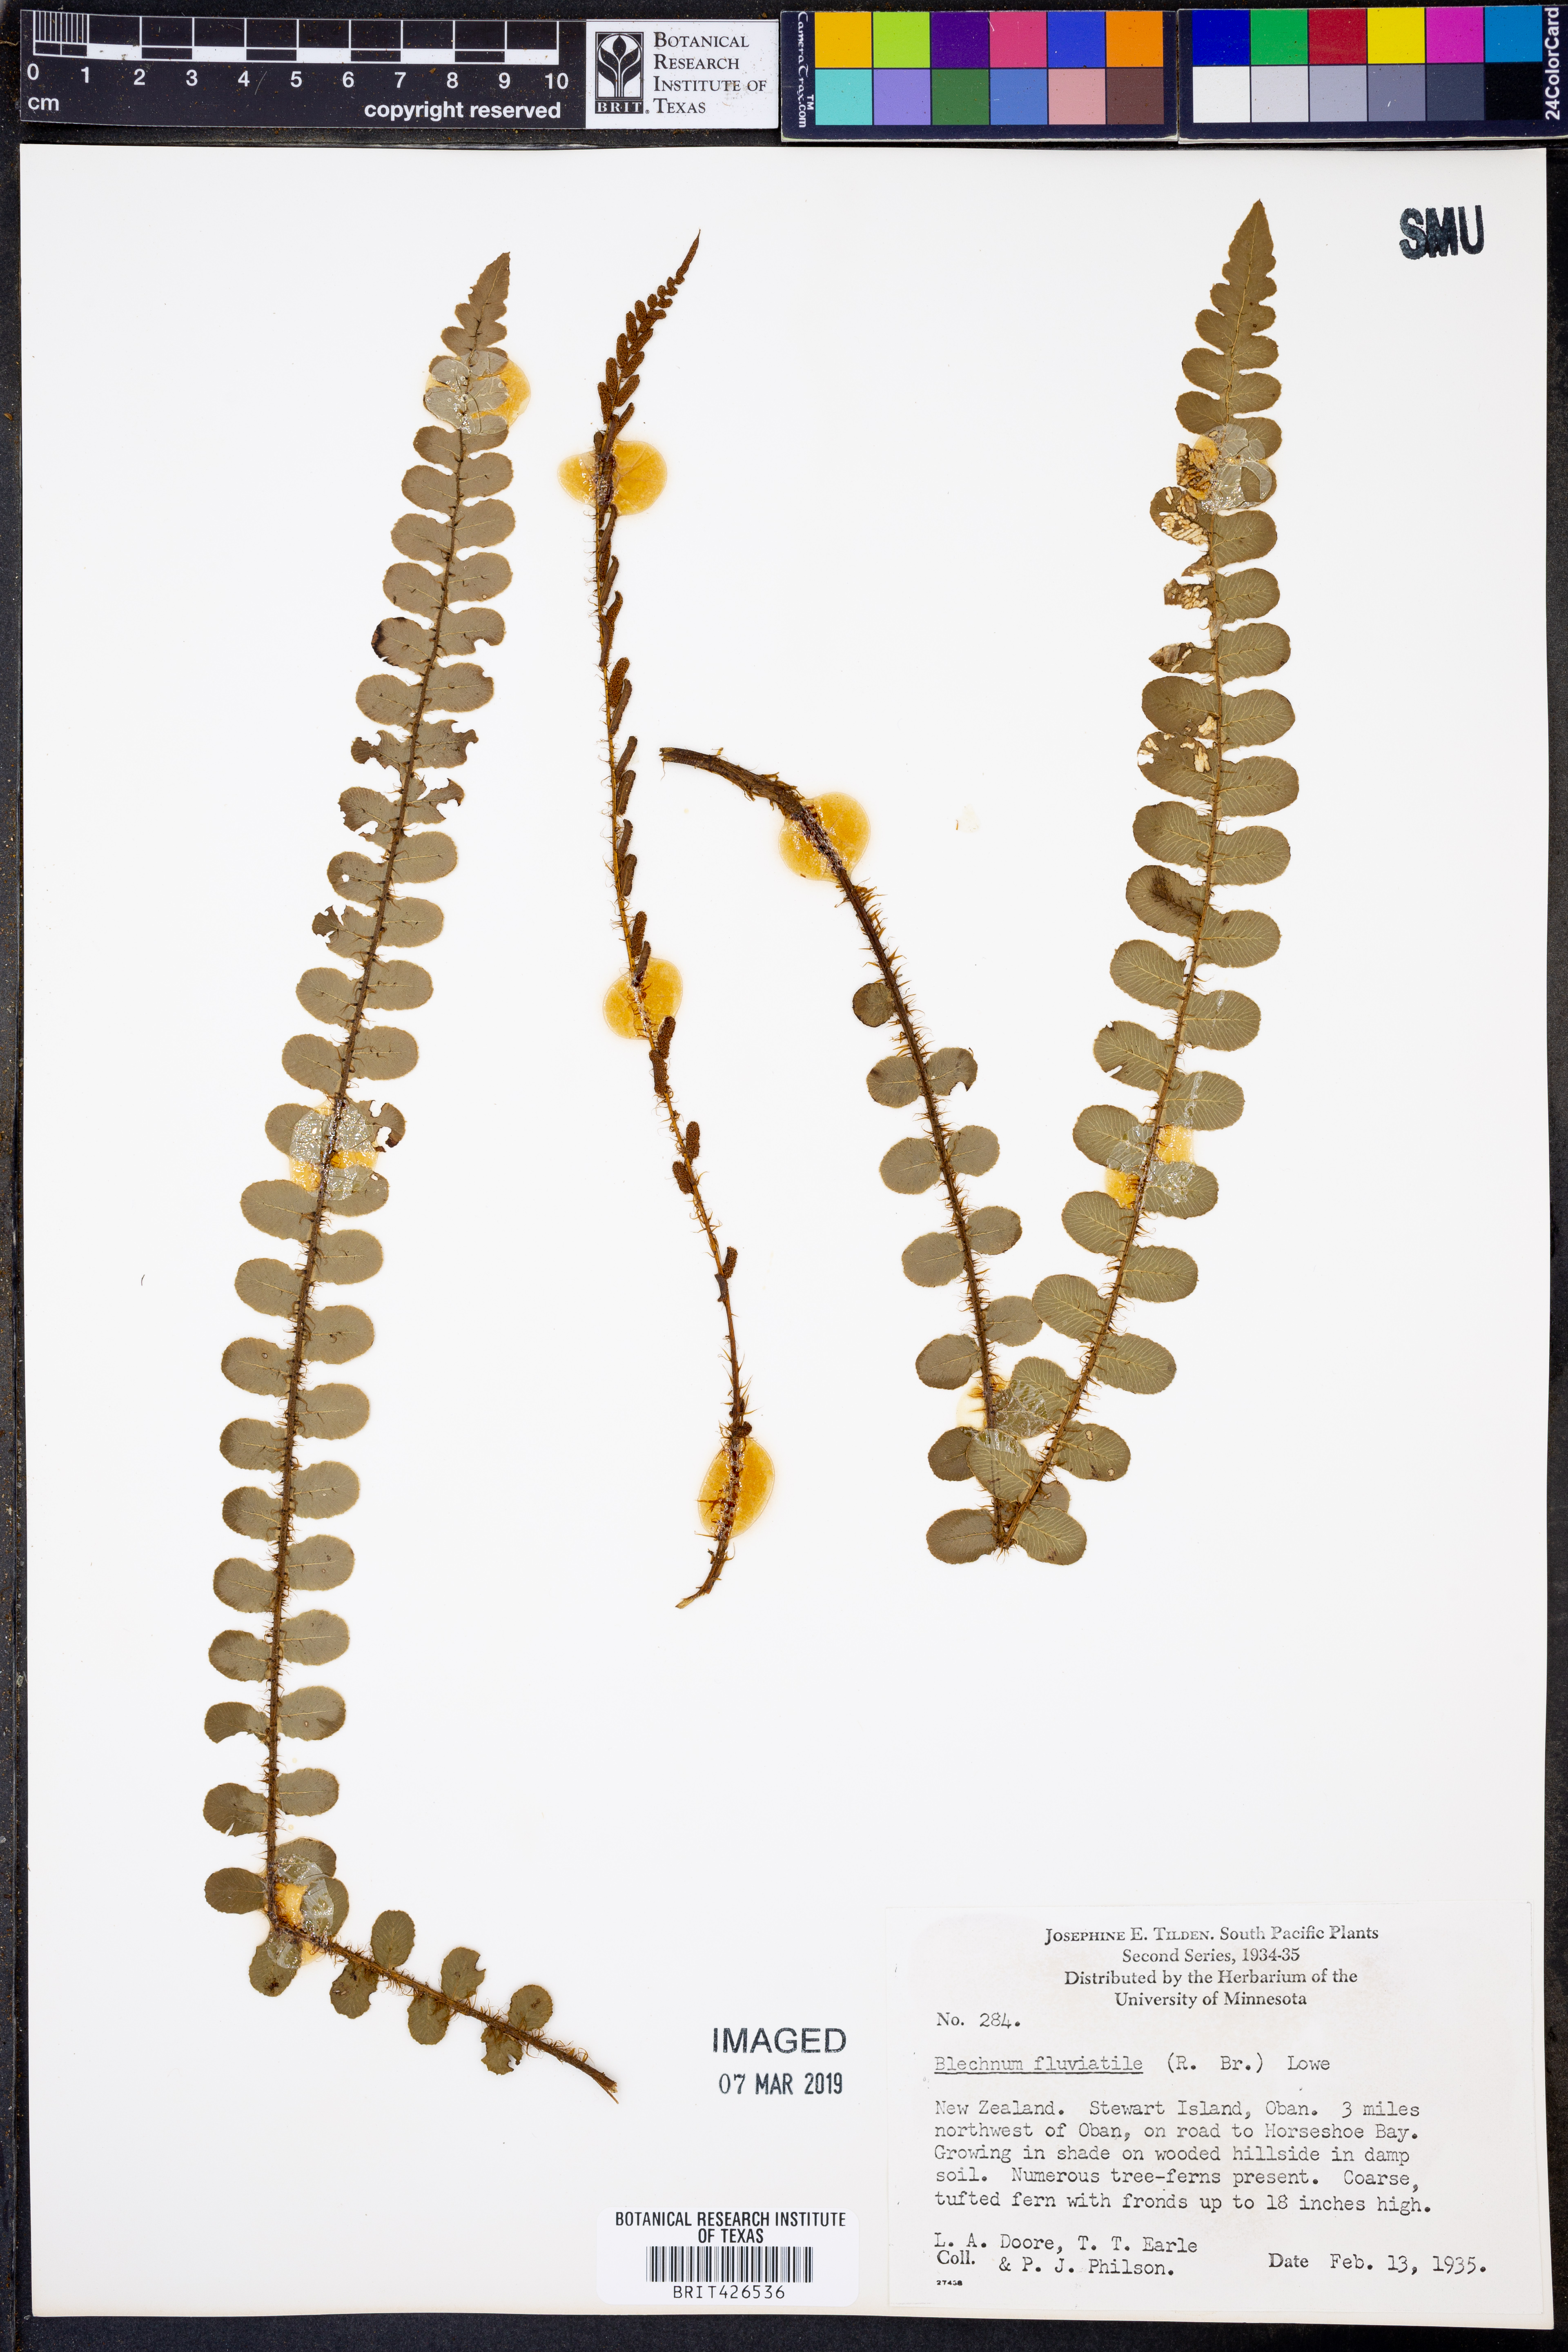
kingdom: Plantae
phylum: Tracheophyta
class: Polypodiopsida
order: Polypodiales
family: Blechnaceae
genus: Cranfillia
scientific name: Cranfillia fluviatilis
